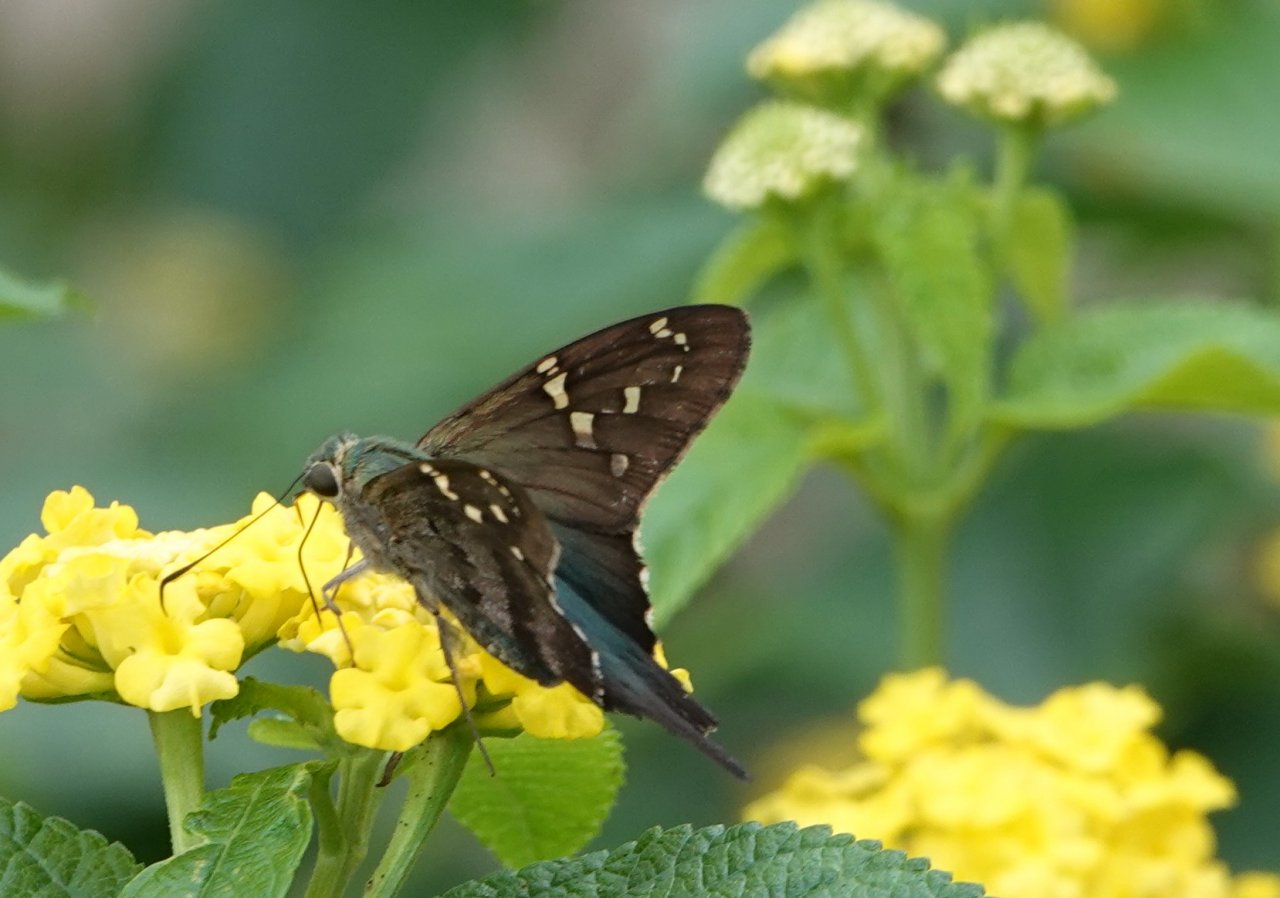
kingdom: Animalia
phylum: Arthropoda
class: Insecta
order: Lepidoptera
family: Hesperiidae
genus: Urbanus
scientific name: Urbanus proteus
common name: Long-tailed Skipper
